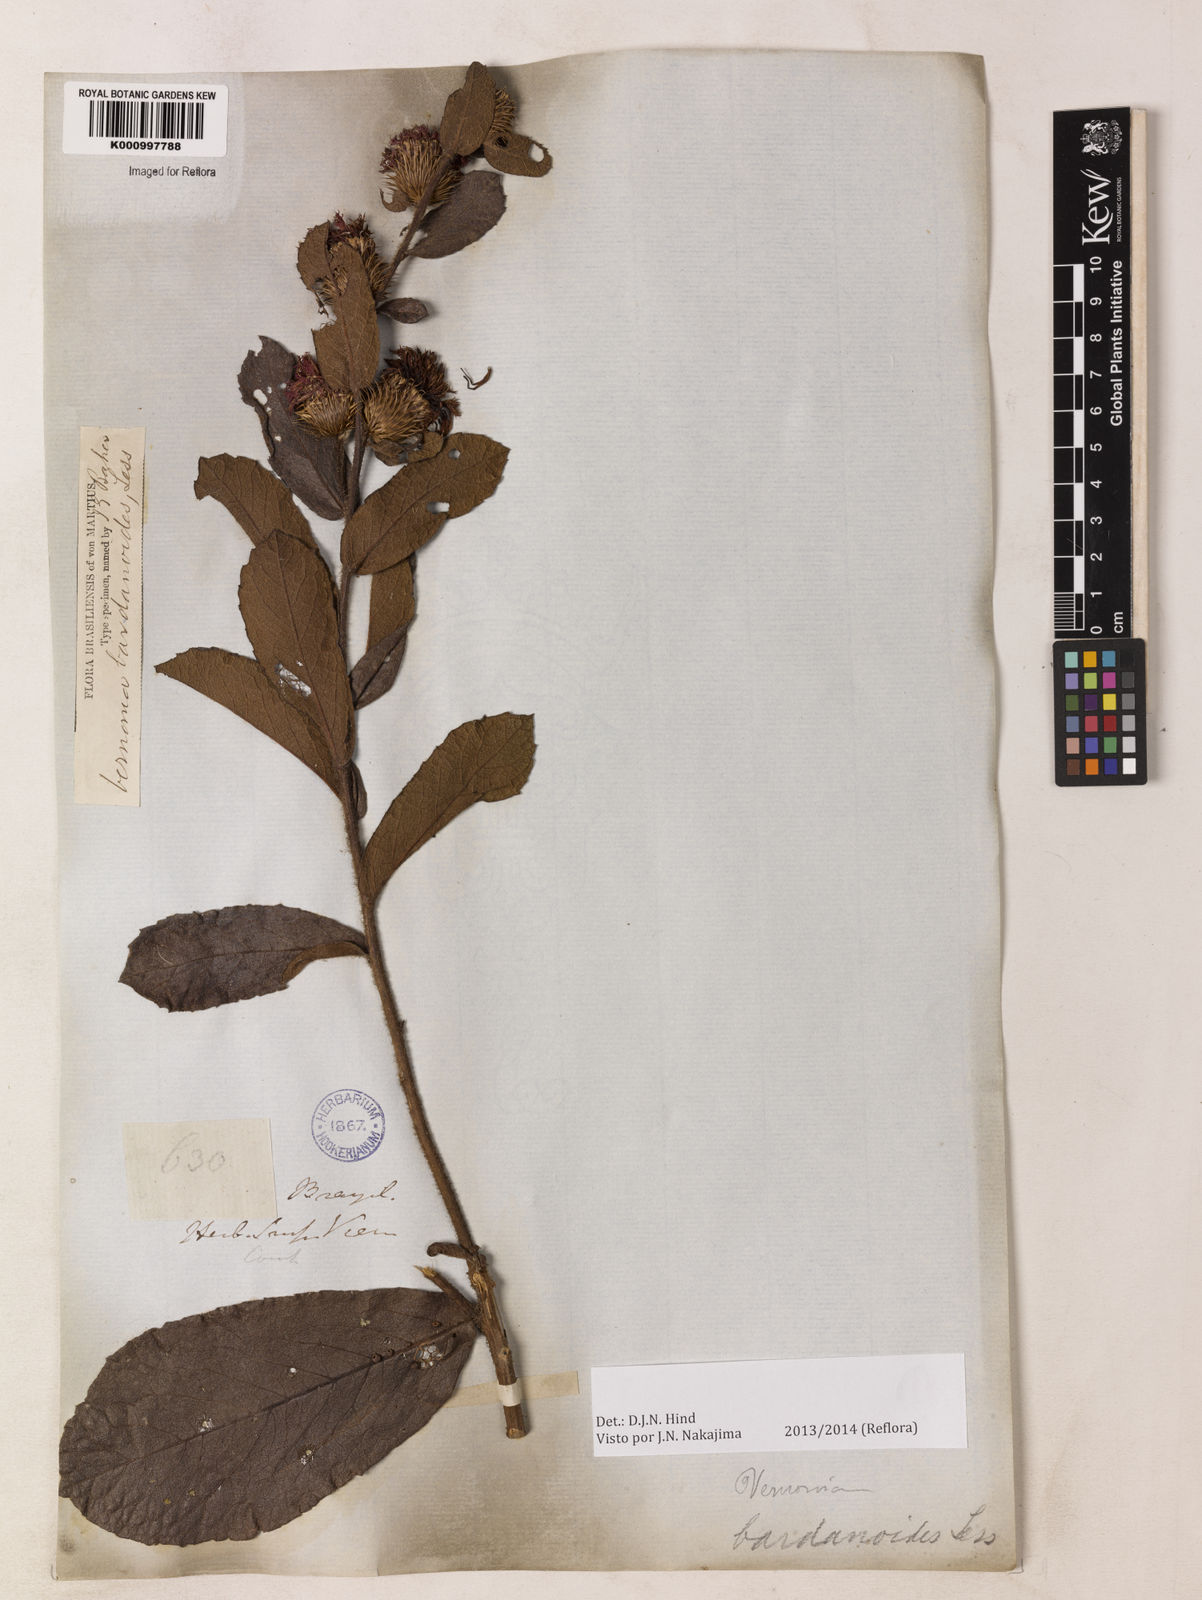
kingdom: Plantae
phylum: Tracheophyta
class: Magnoliopsida
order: Asterales
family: Asteraceae
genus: Lessingianthus
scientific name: Lessingianthus bardanioides
